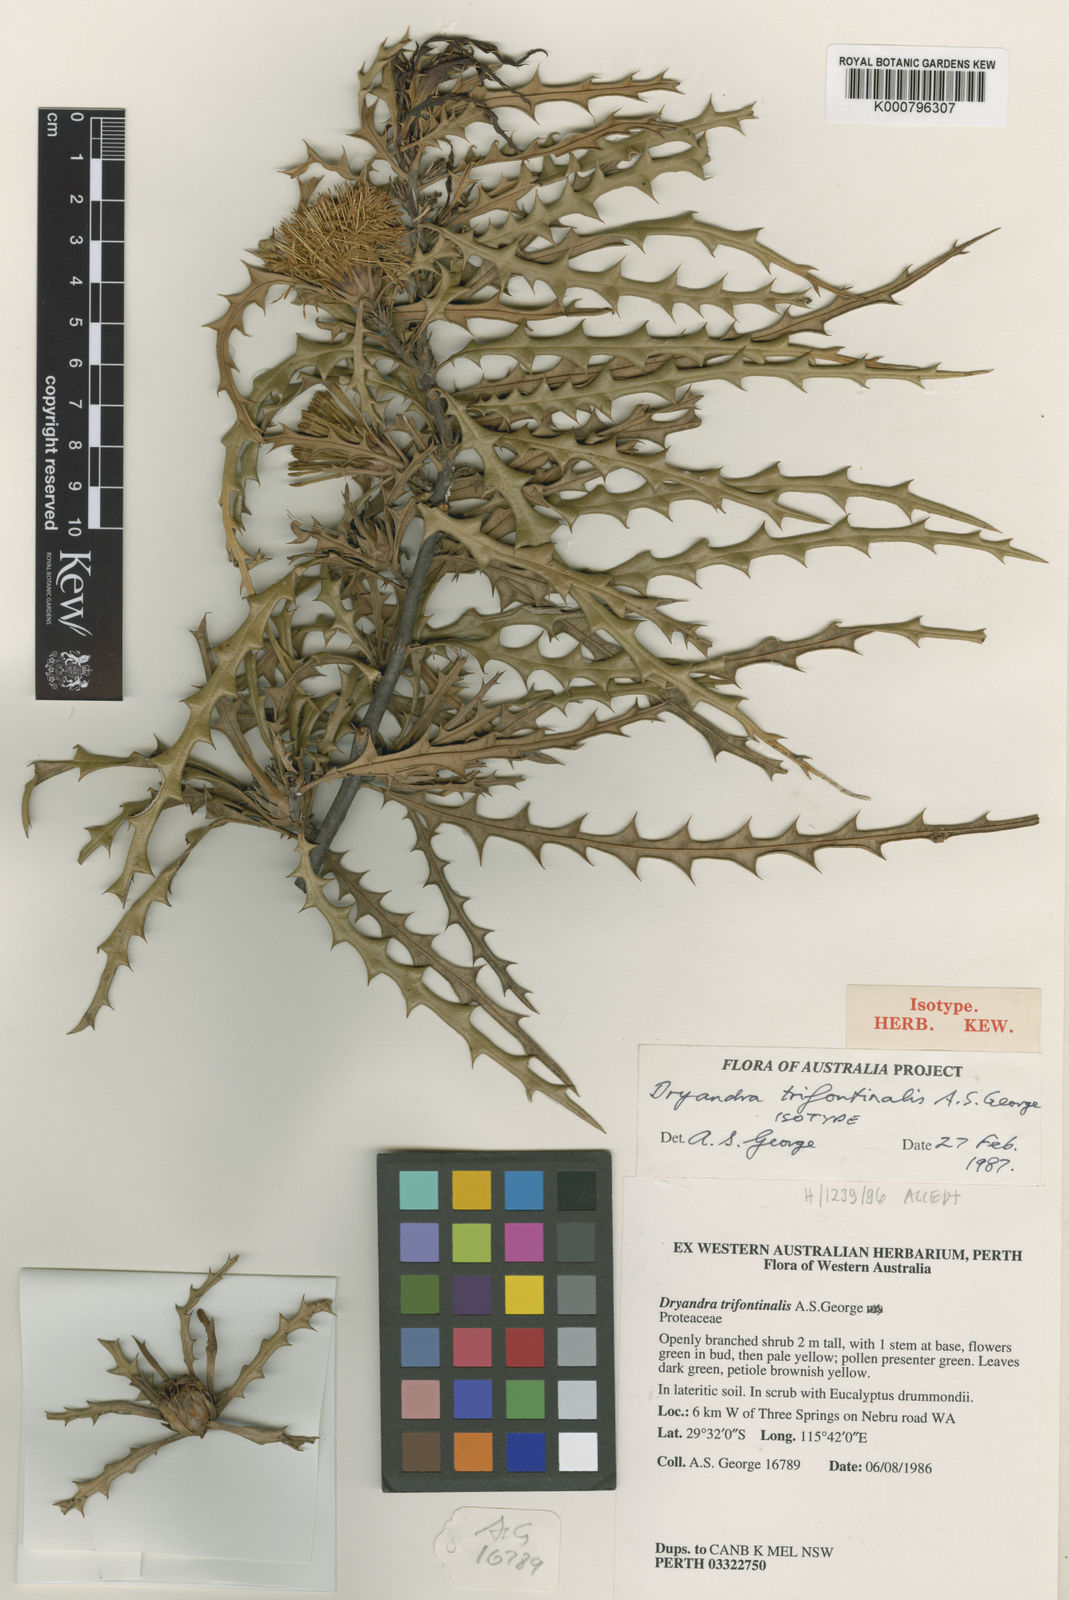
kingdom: Plantae
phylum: Tracheophyta
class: Magnoliopsida
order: Proteales
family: Proteaceae
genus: Banksia
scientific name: Banksia trifontinalis
